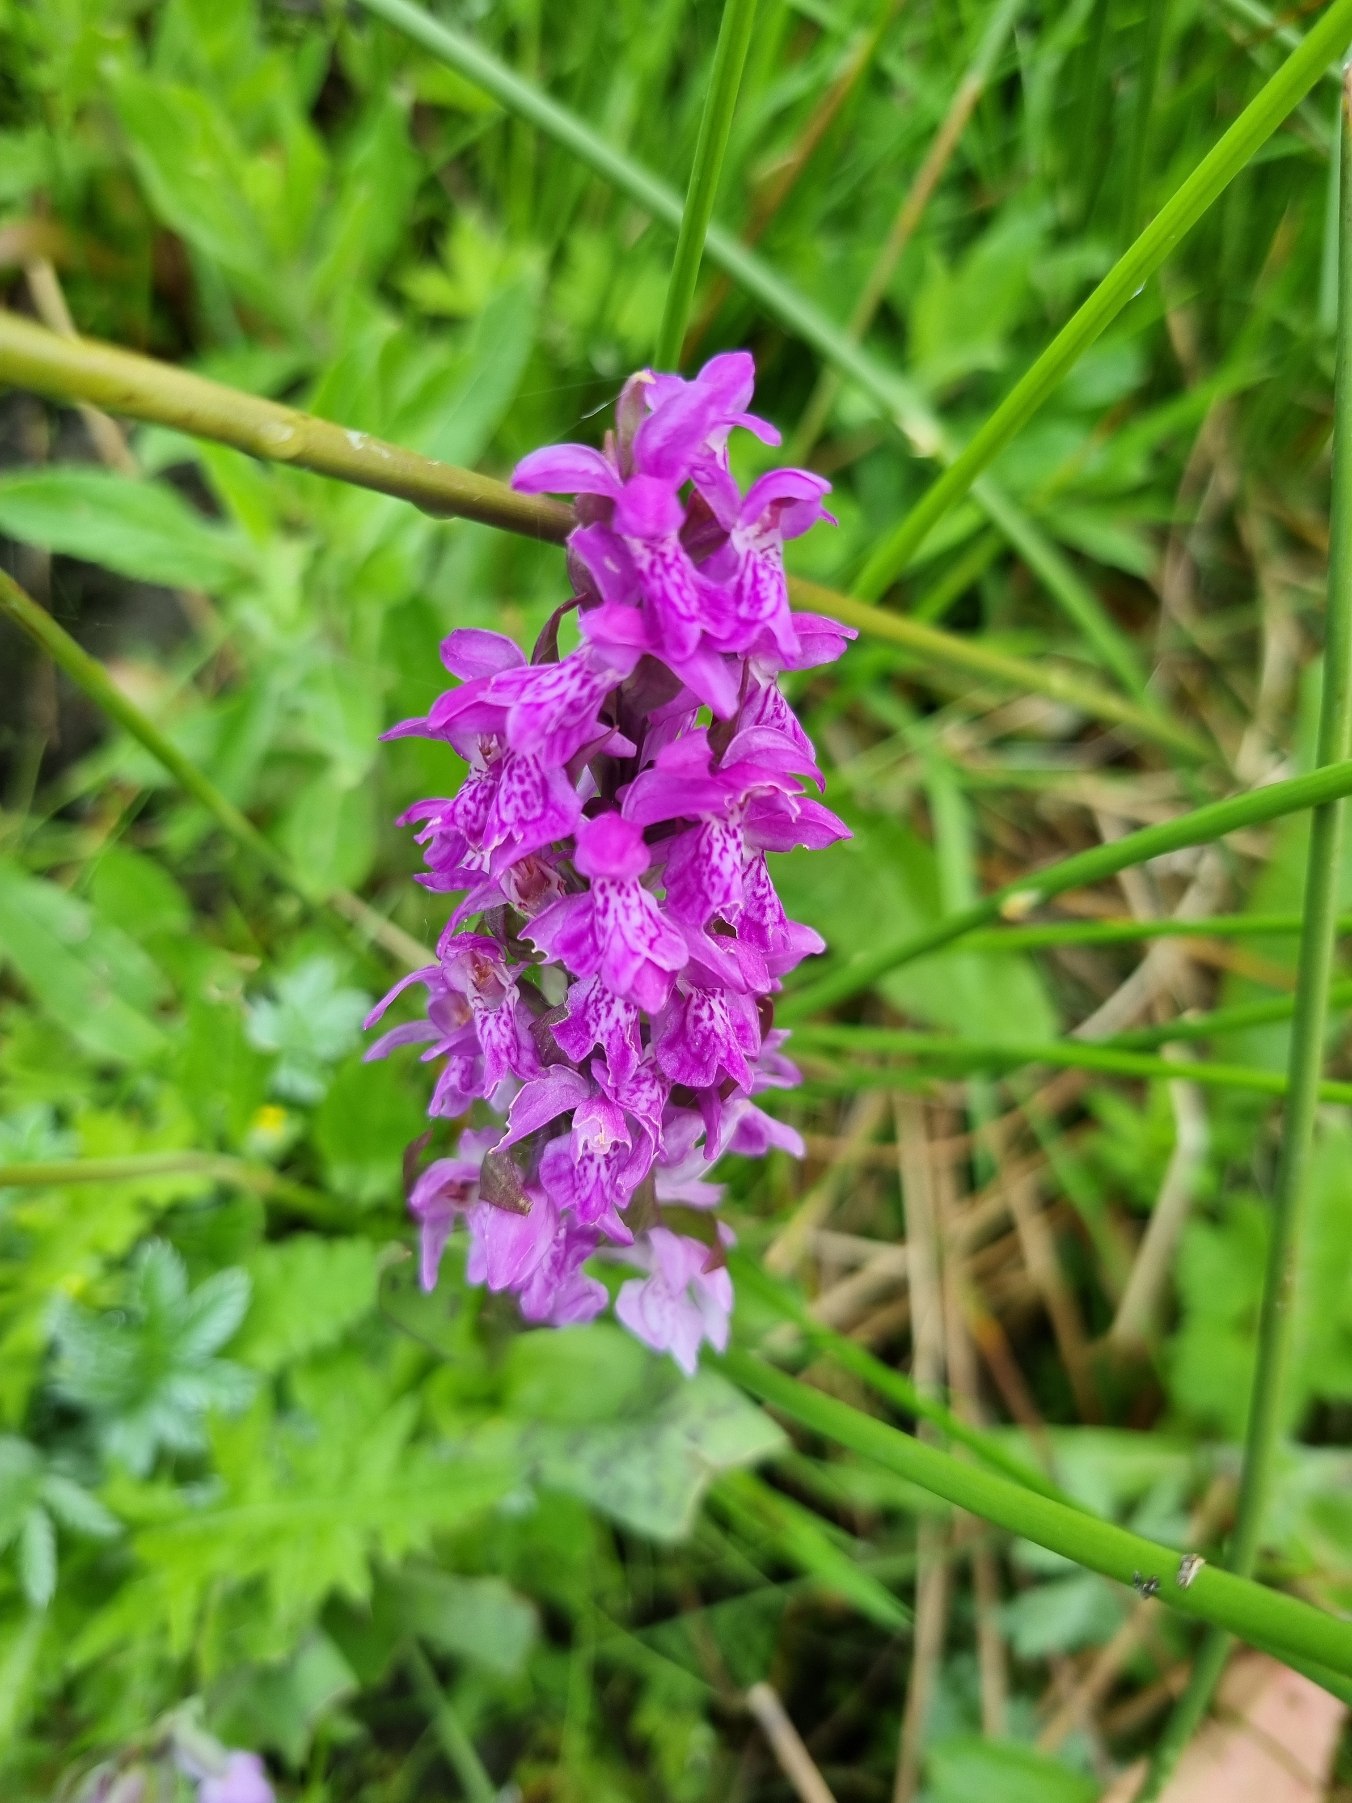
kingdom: Plantae
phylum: Tracheophyta
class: Liliopsida
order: Asparagales
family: Orchidaceae
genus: Dactylorhiza
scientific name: Dactylorhiza majalis
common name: Maj-gøgeurt
